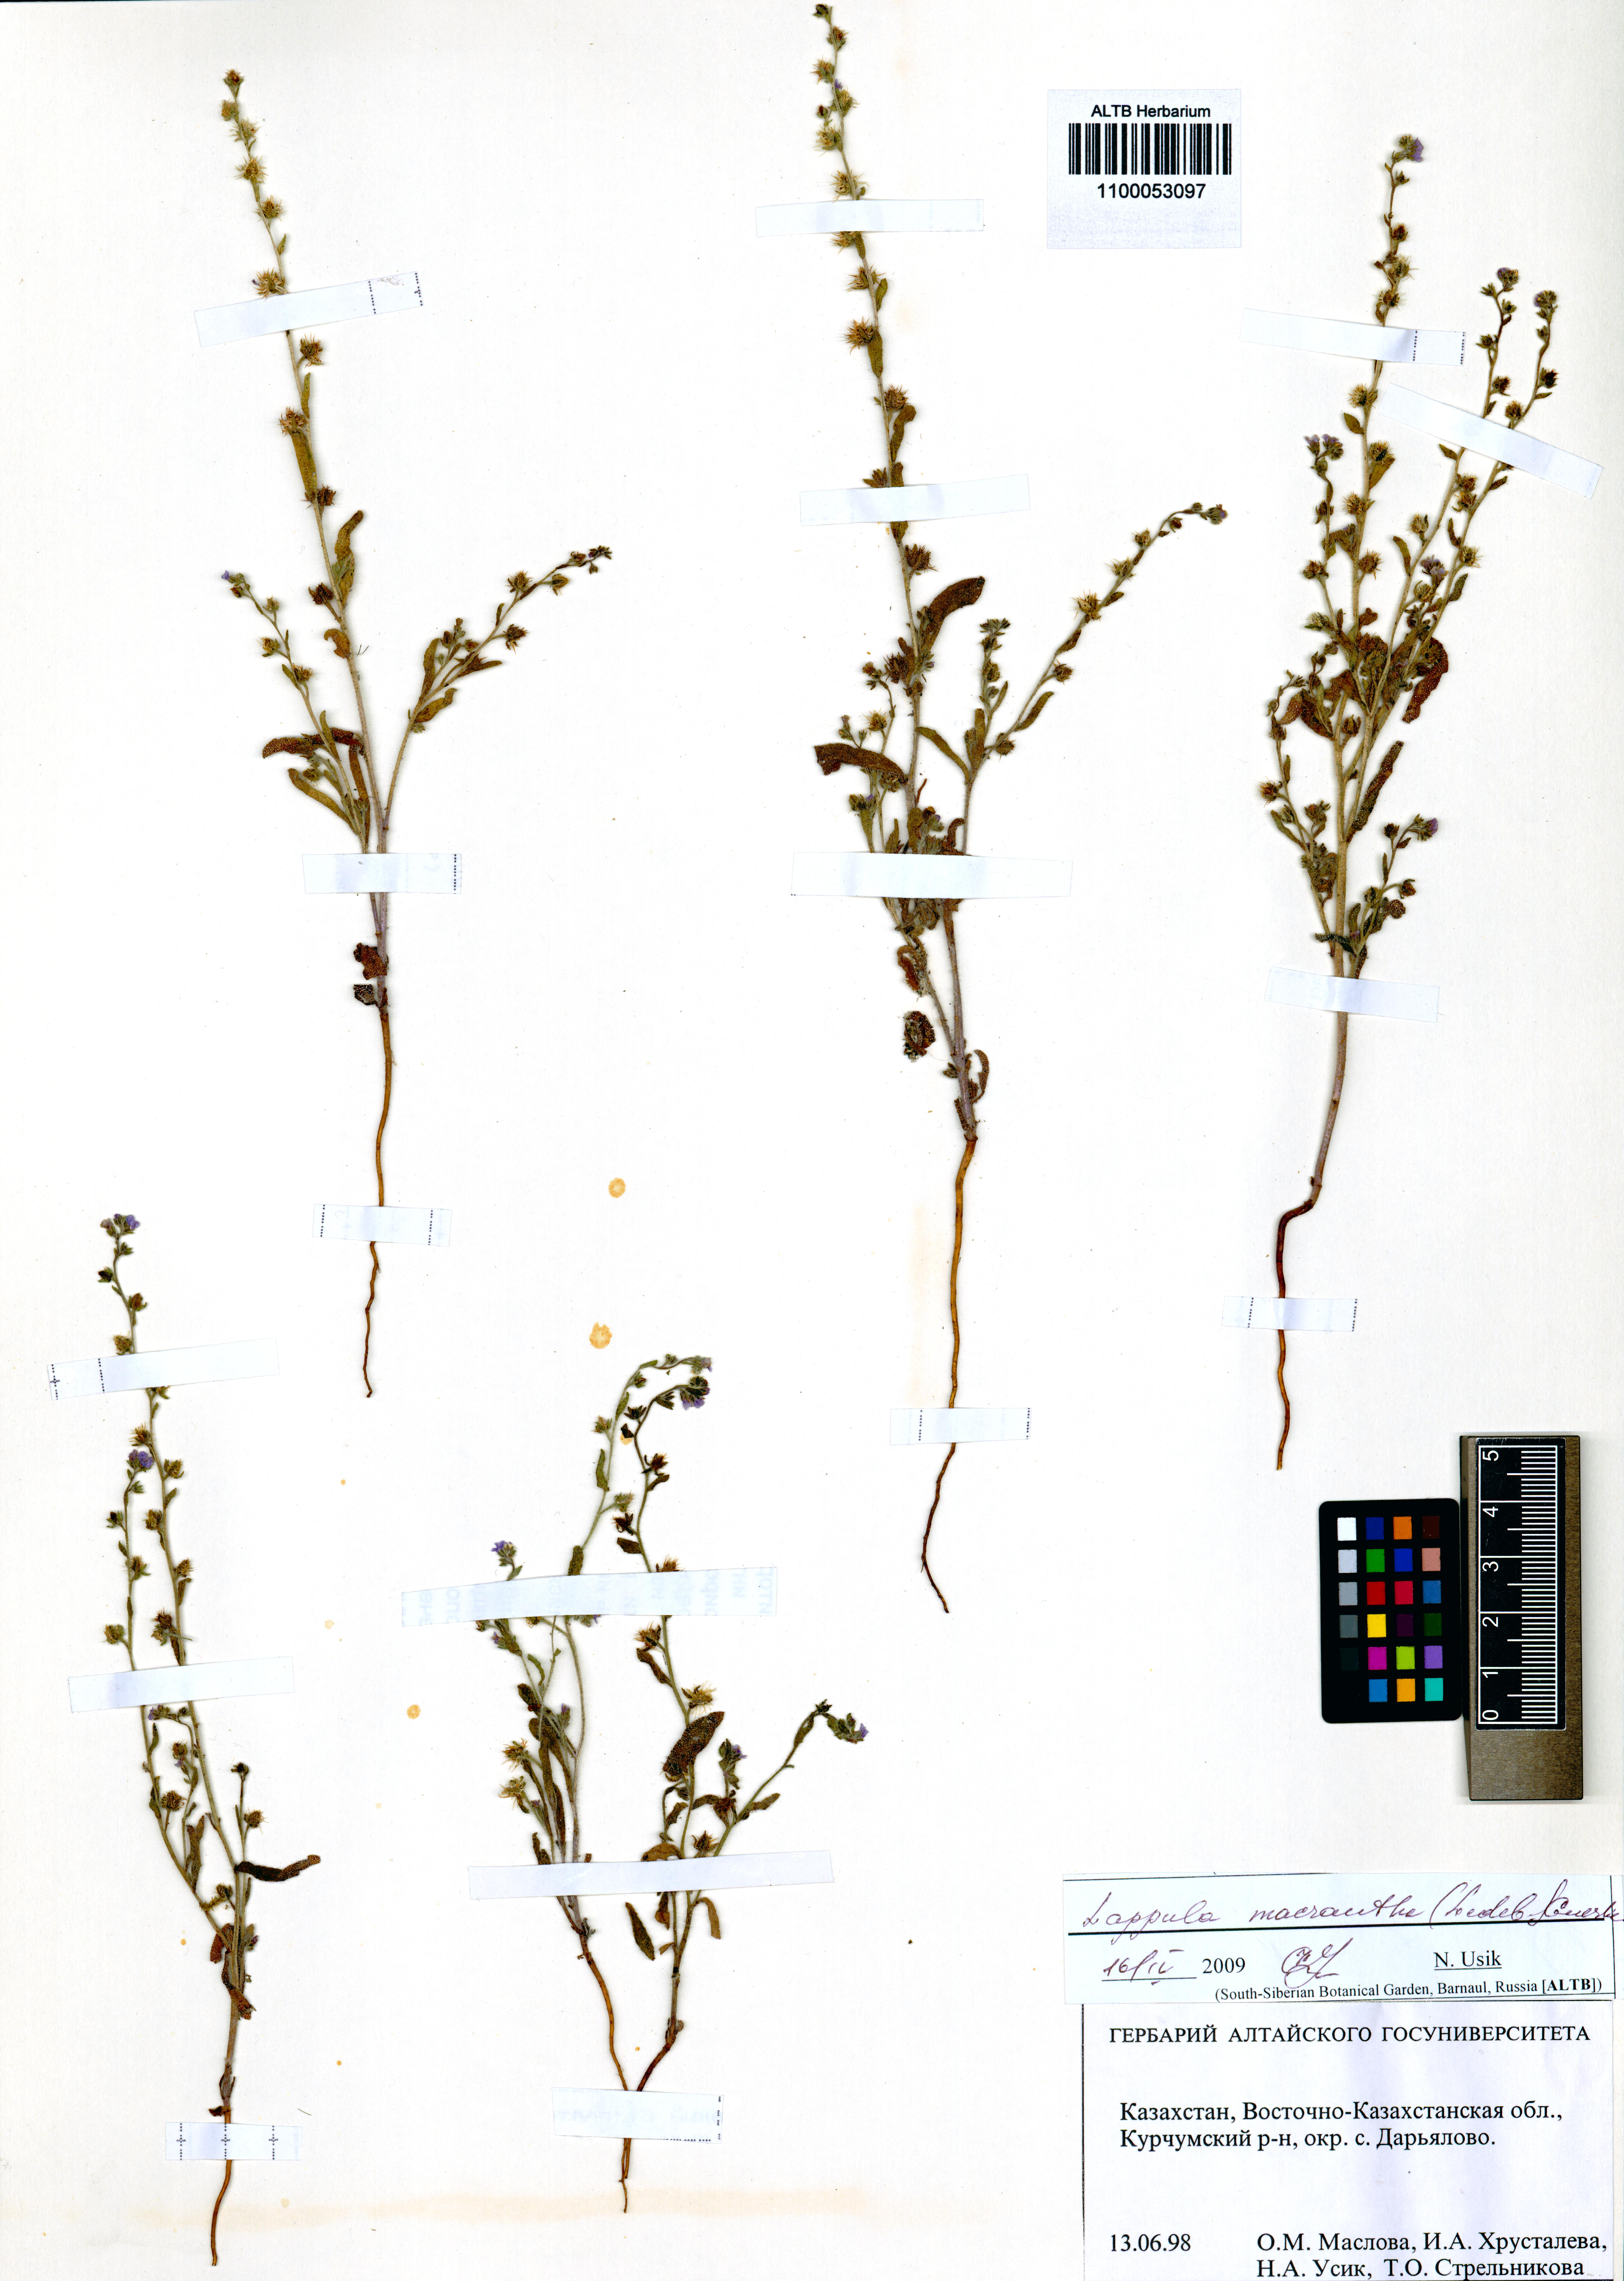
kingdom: Plantae
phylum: Tracheophyta
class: Magnoliopsida
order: Boraginales
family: Boraginaceae
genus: Lappula
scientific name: Lappula macrantha
